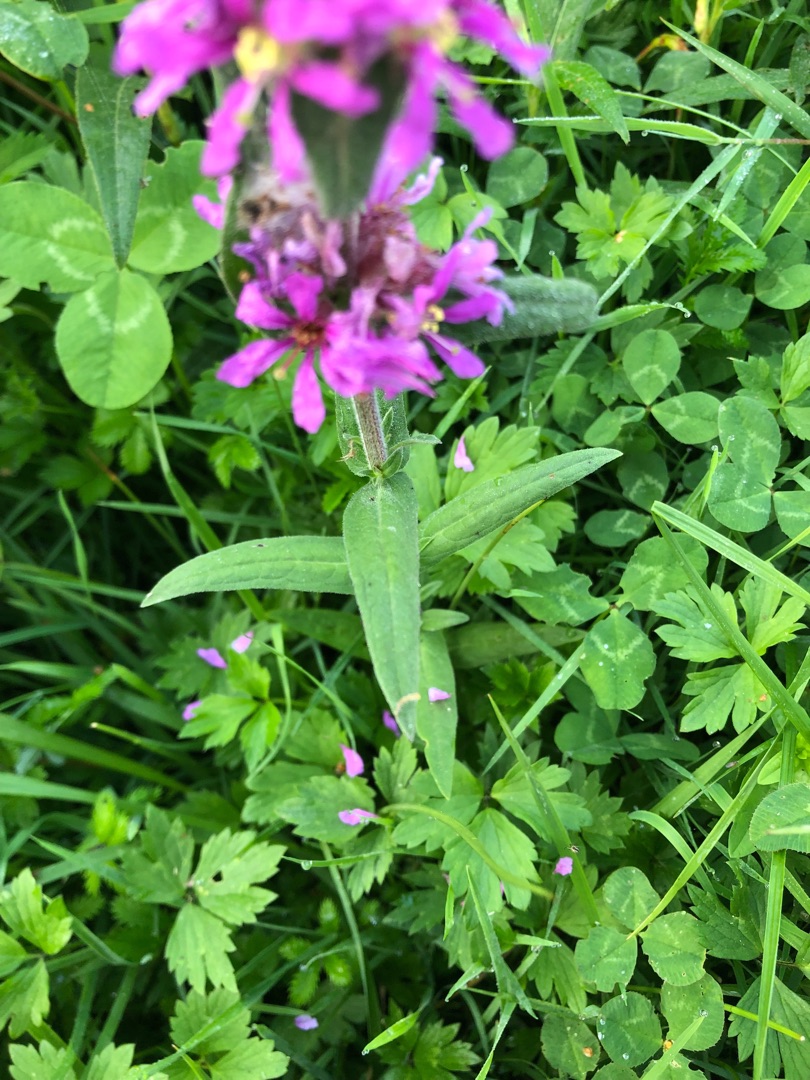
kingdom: Plantae
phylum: Tracheophyta
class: Magnoliopsida
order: Myrtales
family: Lythraceae
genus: Lythrum
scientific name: Lythrum salicaria
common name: Kattehale
